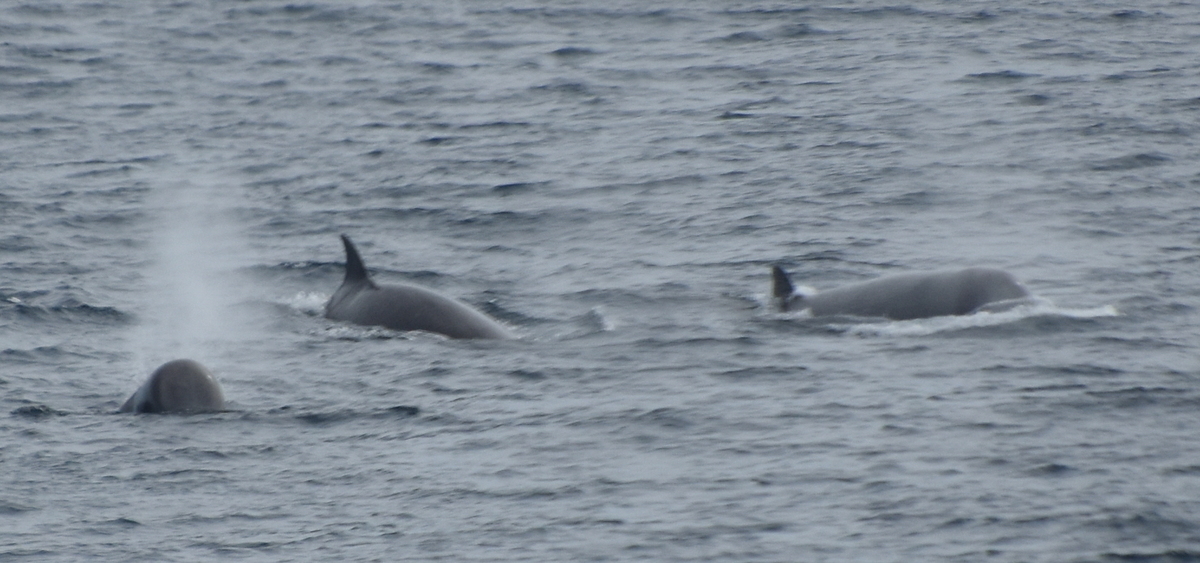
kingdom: Animalia
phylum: Chordata
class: Mammalia
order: Cetacea
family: Hyperoodontidae
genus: Hyperoodon
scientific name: Hyperoodon ampullatus
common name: Northern bottlenose whale
